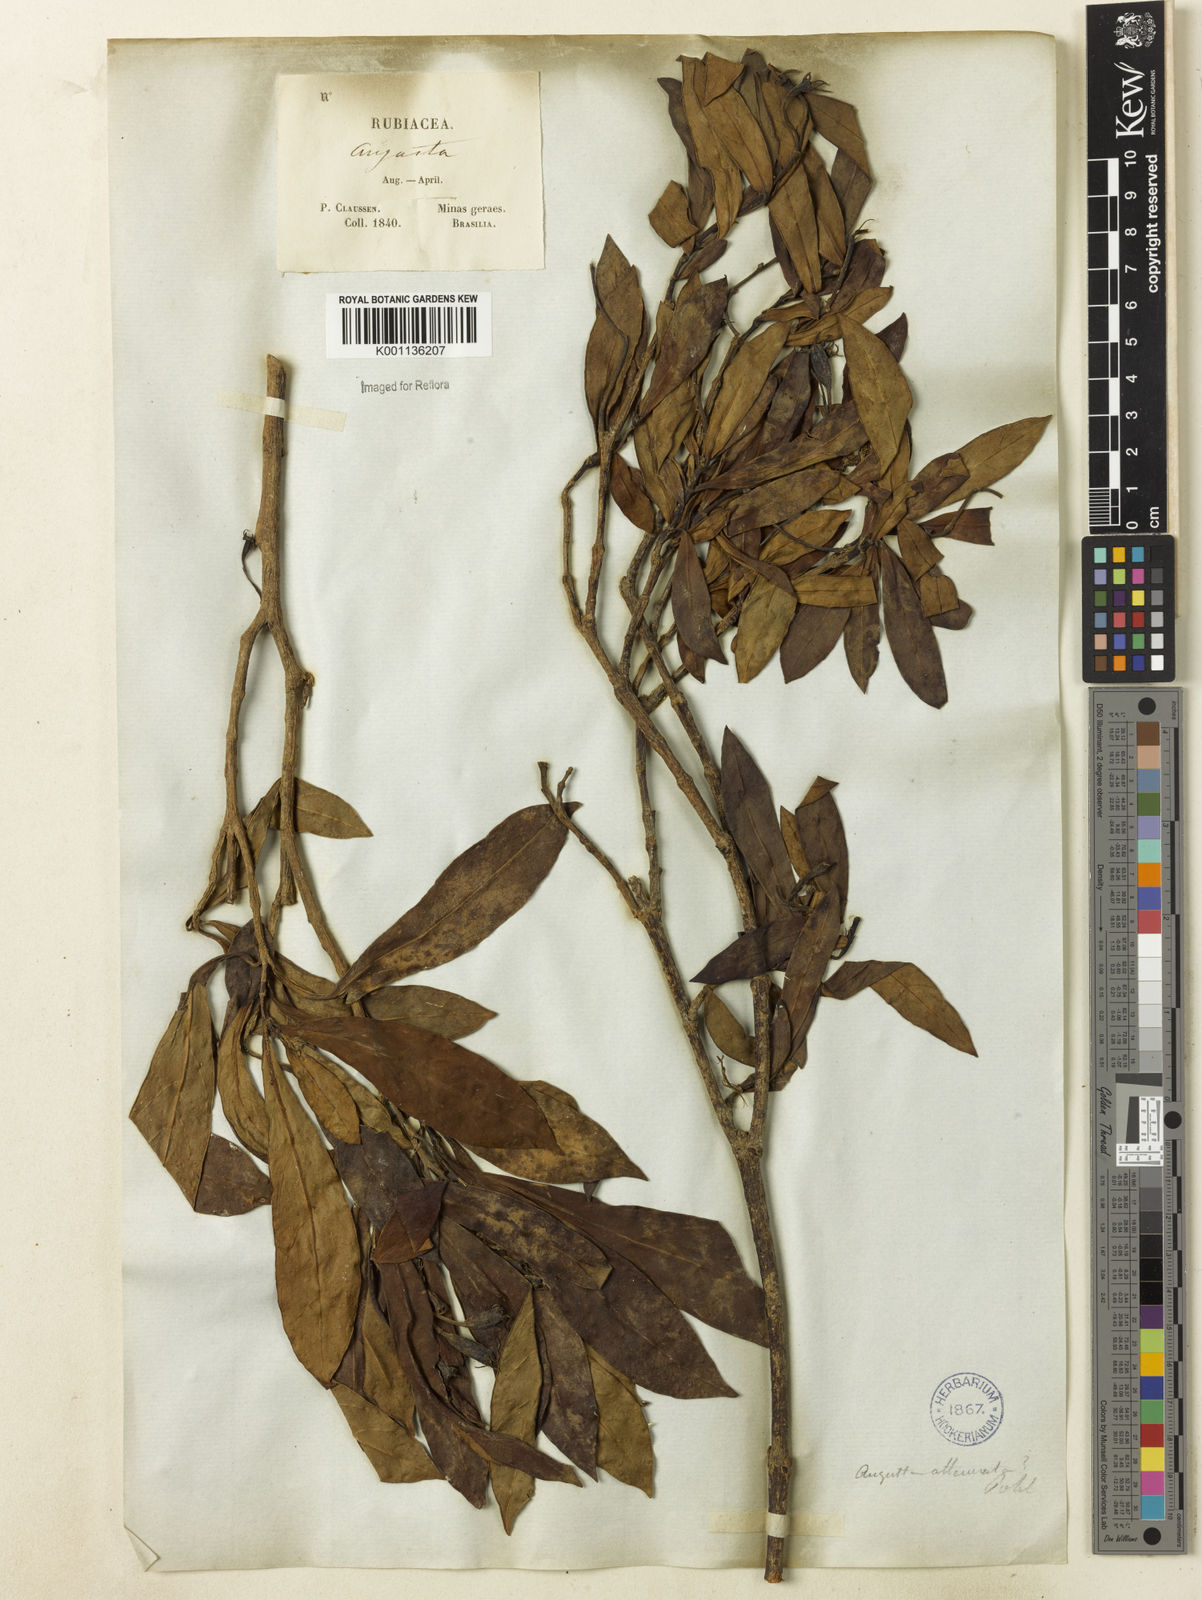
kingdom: Plantae
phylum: Tracheophyta
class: Magnoliopsida
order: Gentianales
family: Rubiaceae
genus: Augusta
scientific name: Augusta longifolia
